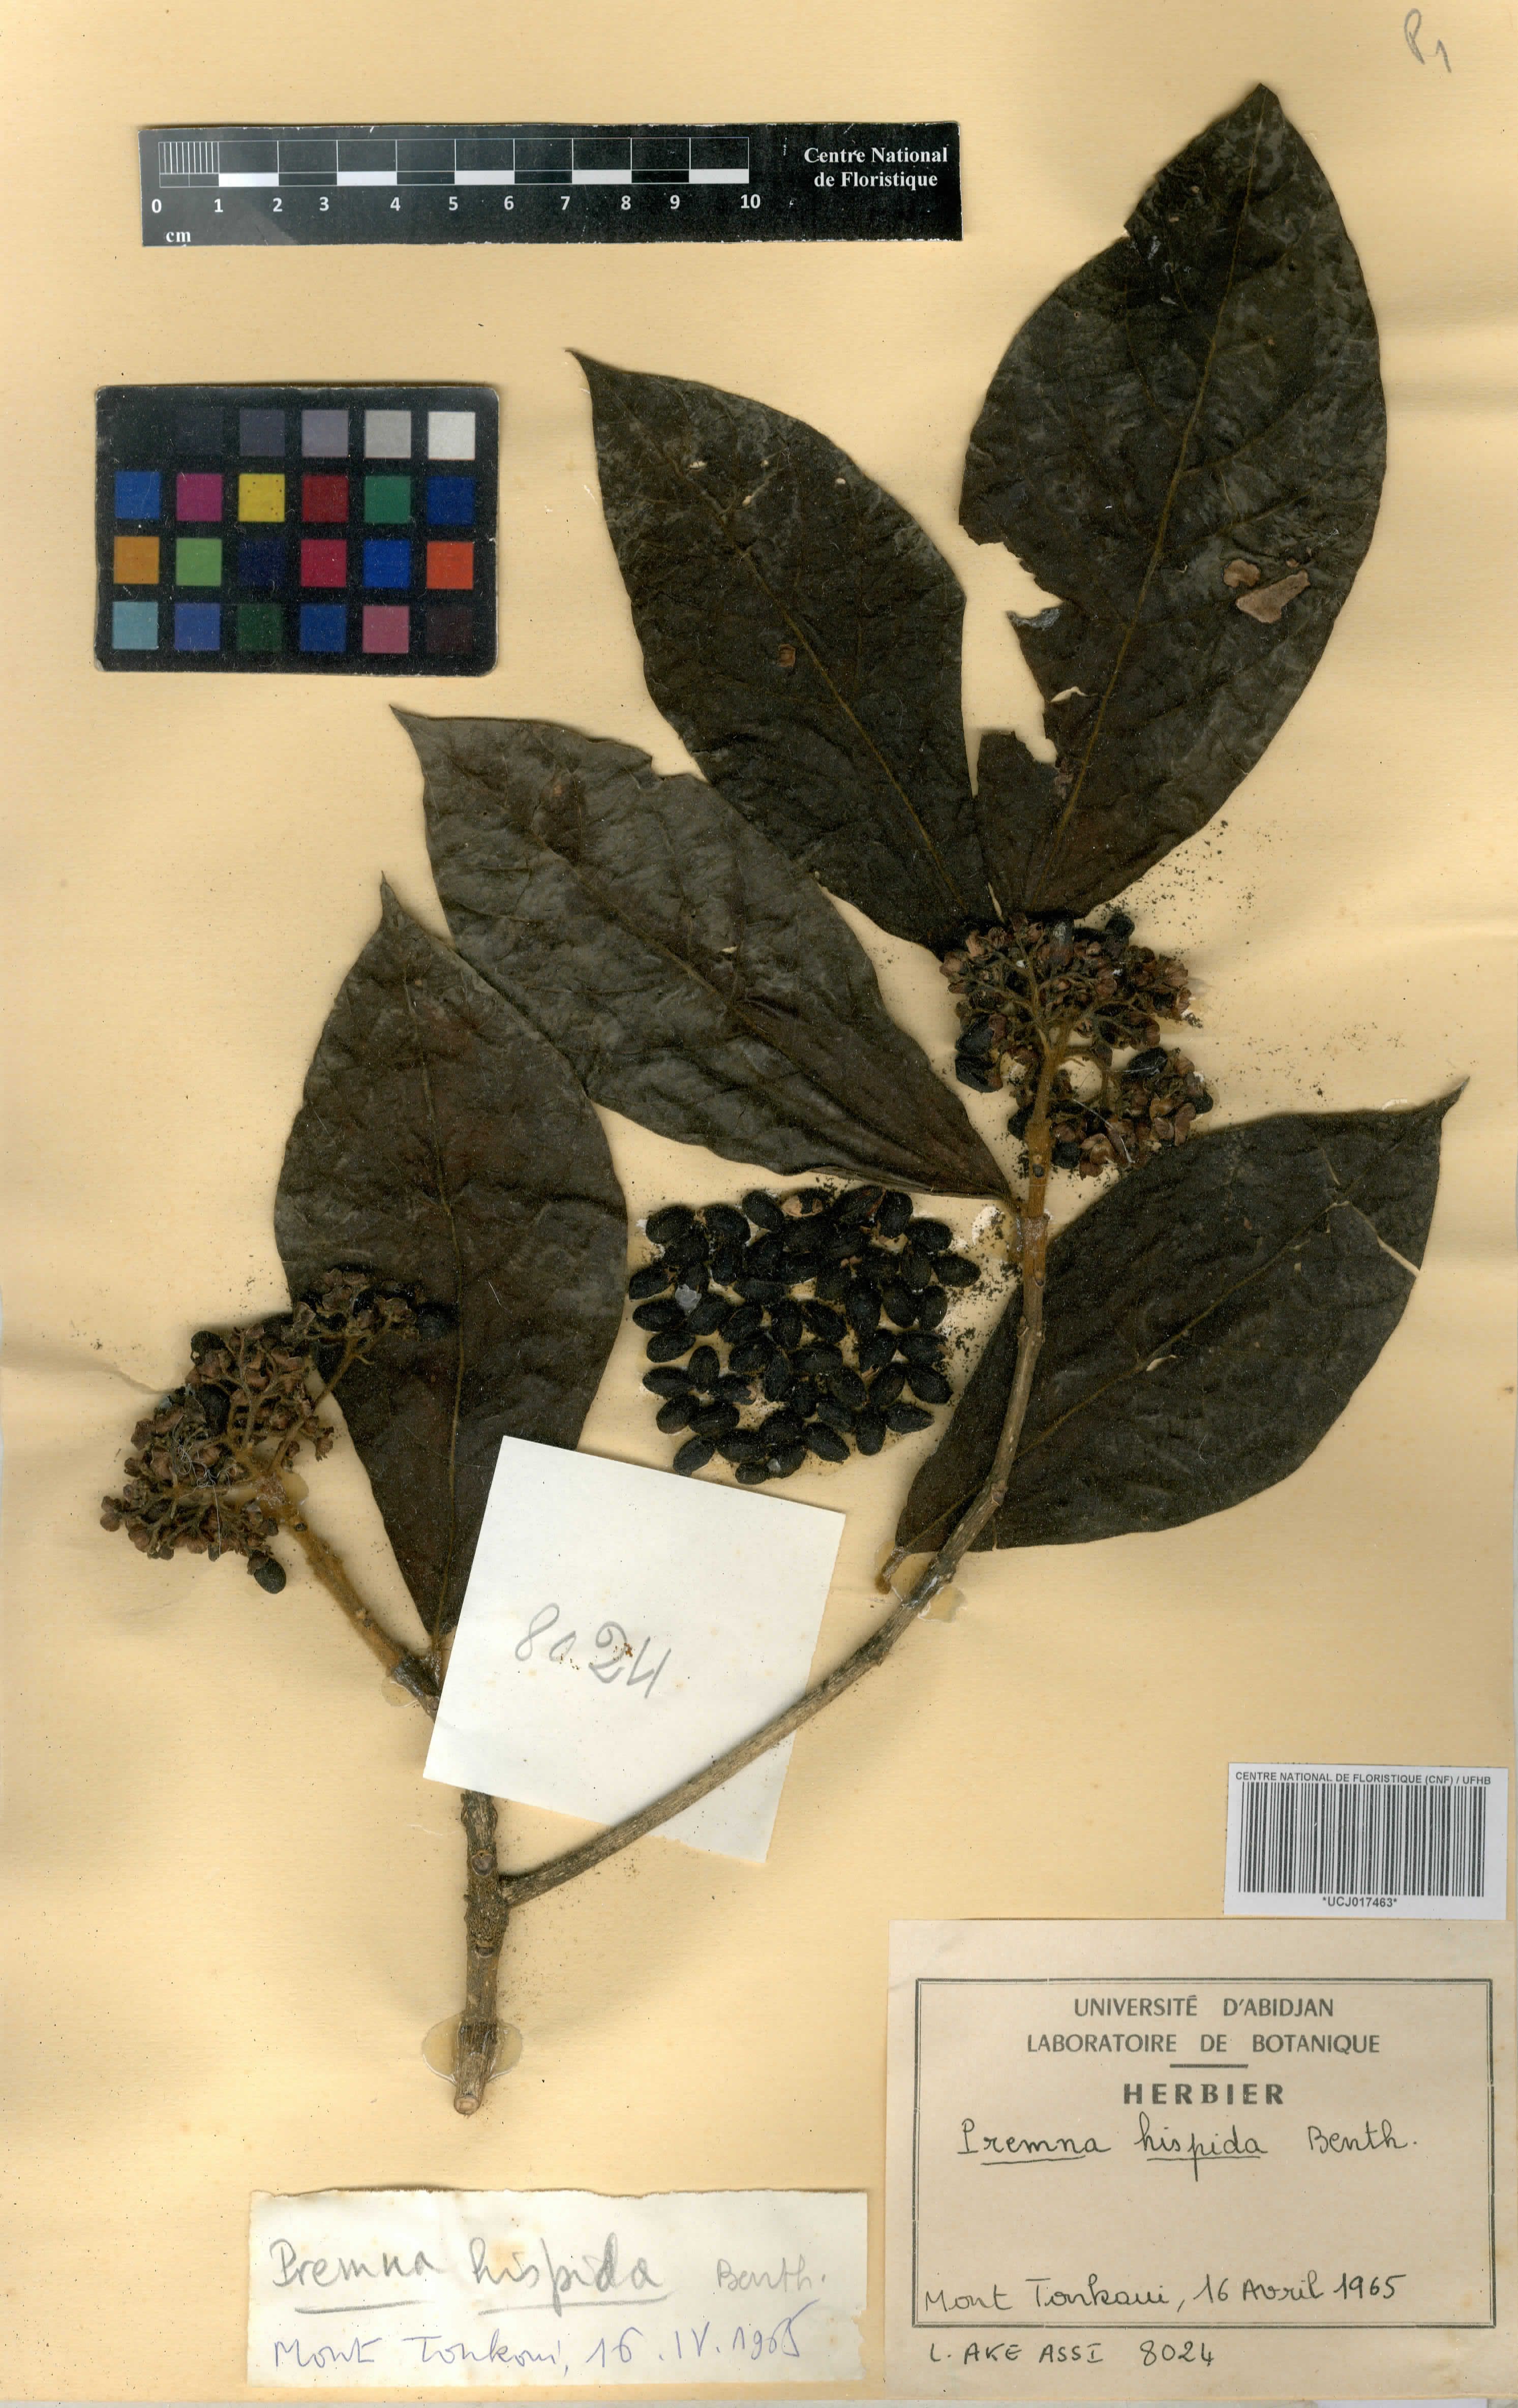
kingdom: Plantae
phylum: Tracheophyta
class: Magnoliopsida
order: Lamiales
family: Lamiaceae
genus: Premna
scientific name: Premna hispida
